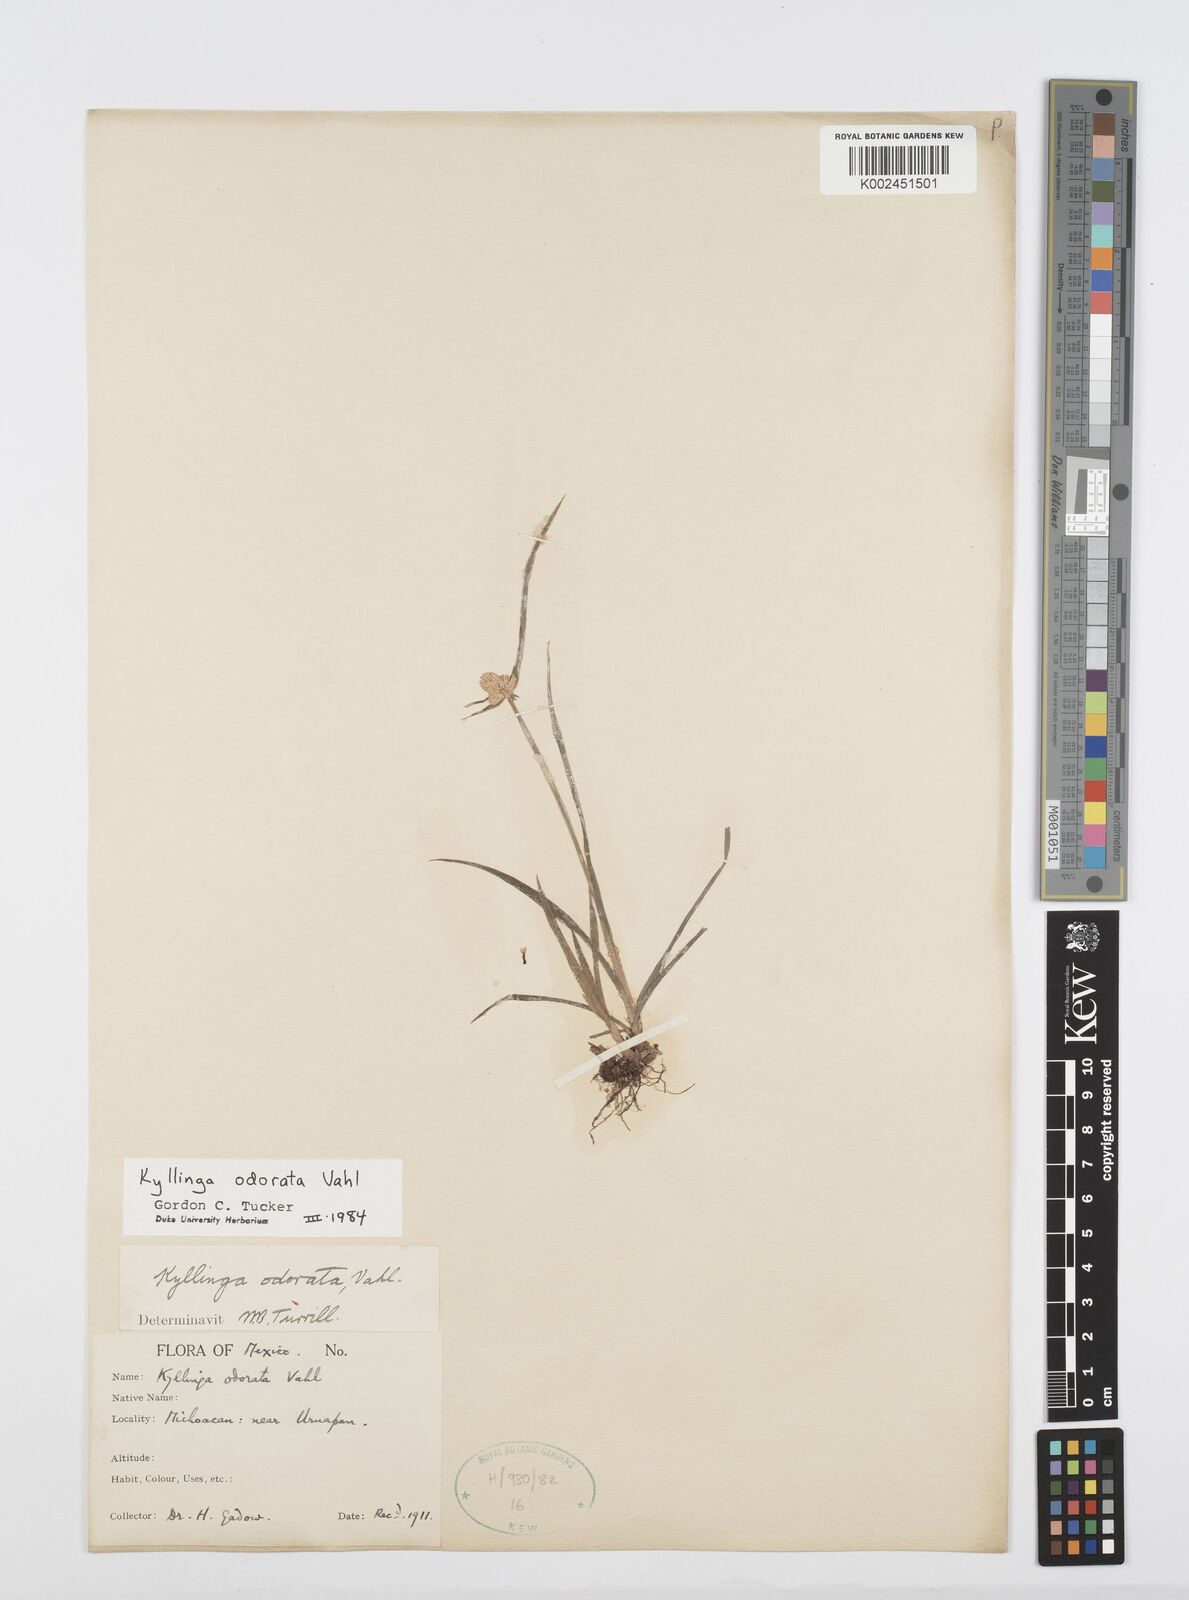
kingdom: Plantae
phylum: Tracheophyta
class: Liliopsida
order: Poales
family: Cyperaceae
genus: Cyperus
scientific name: Cyperus
